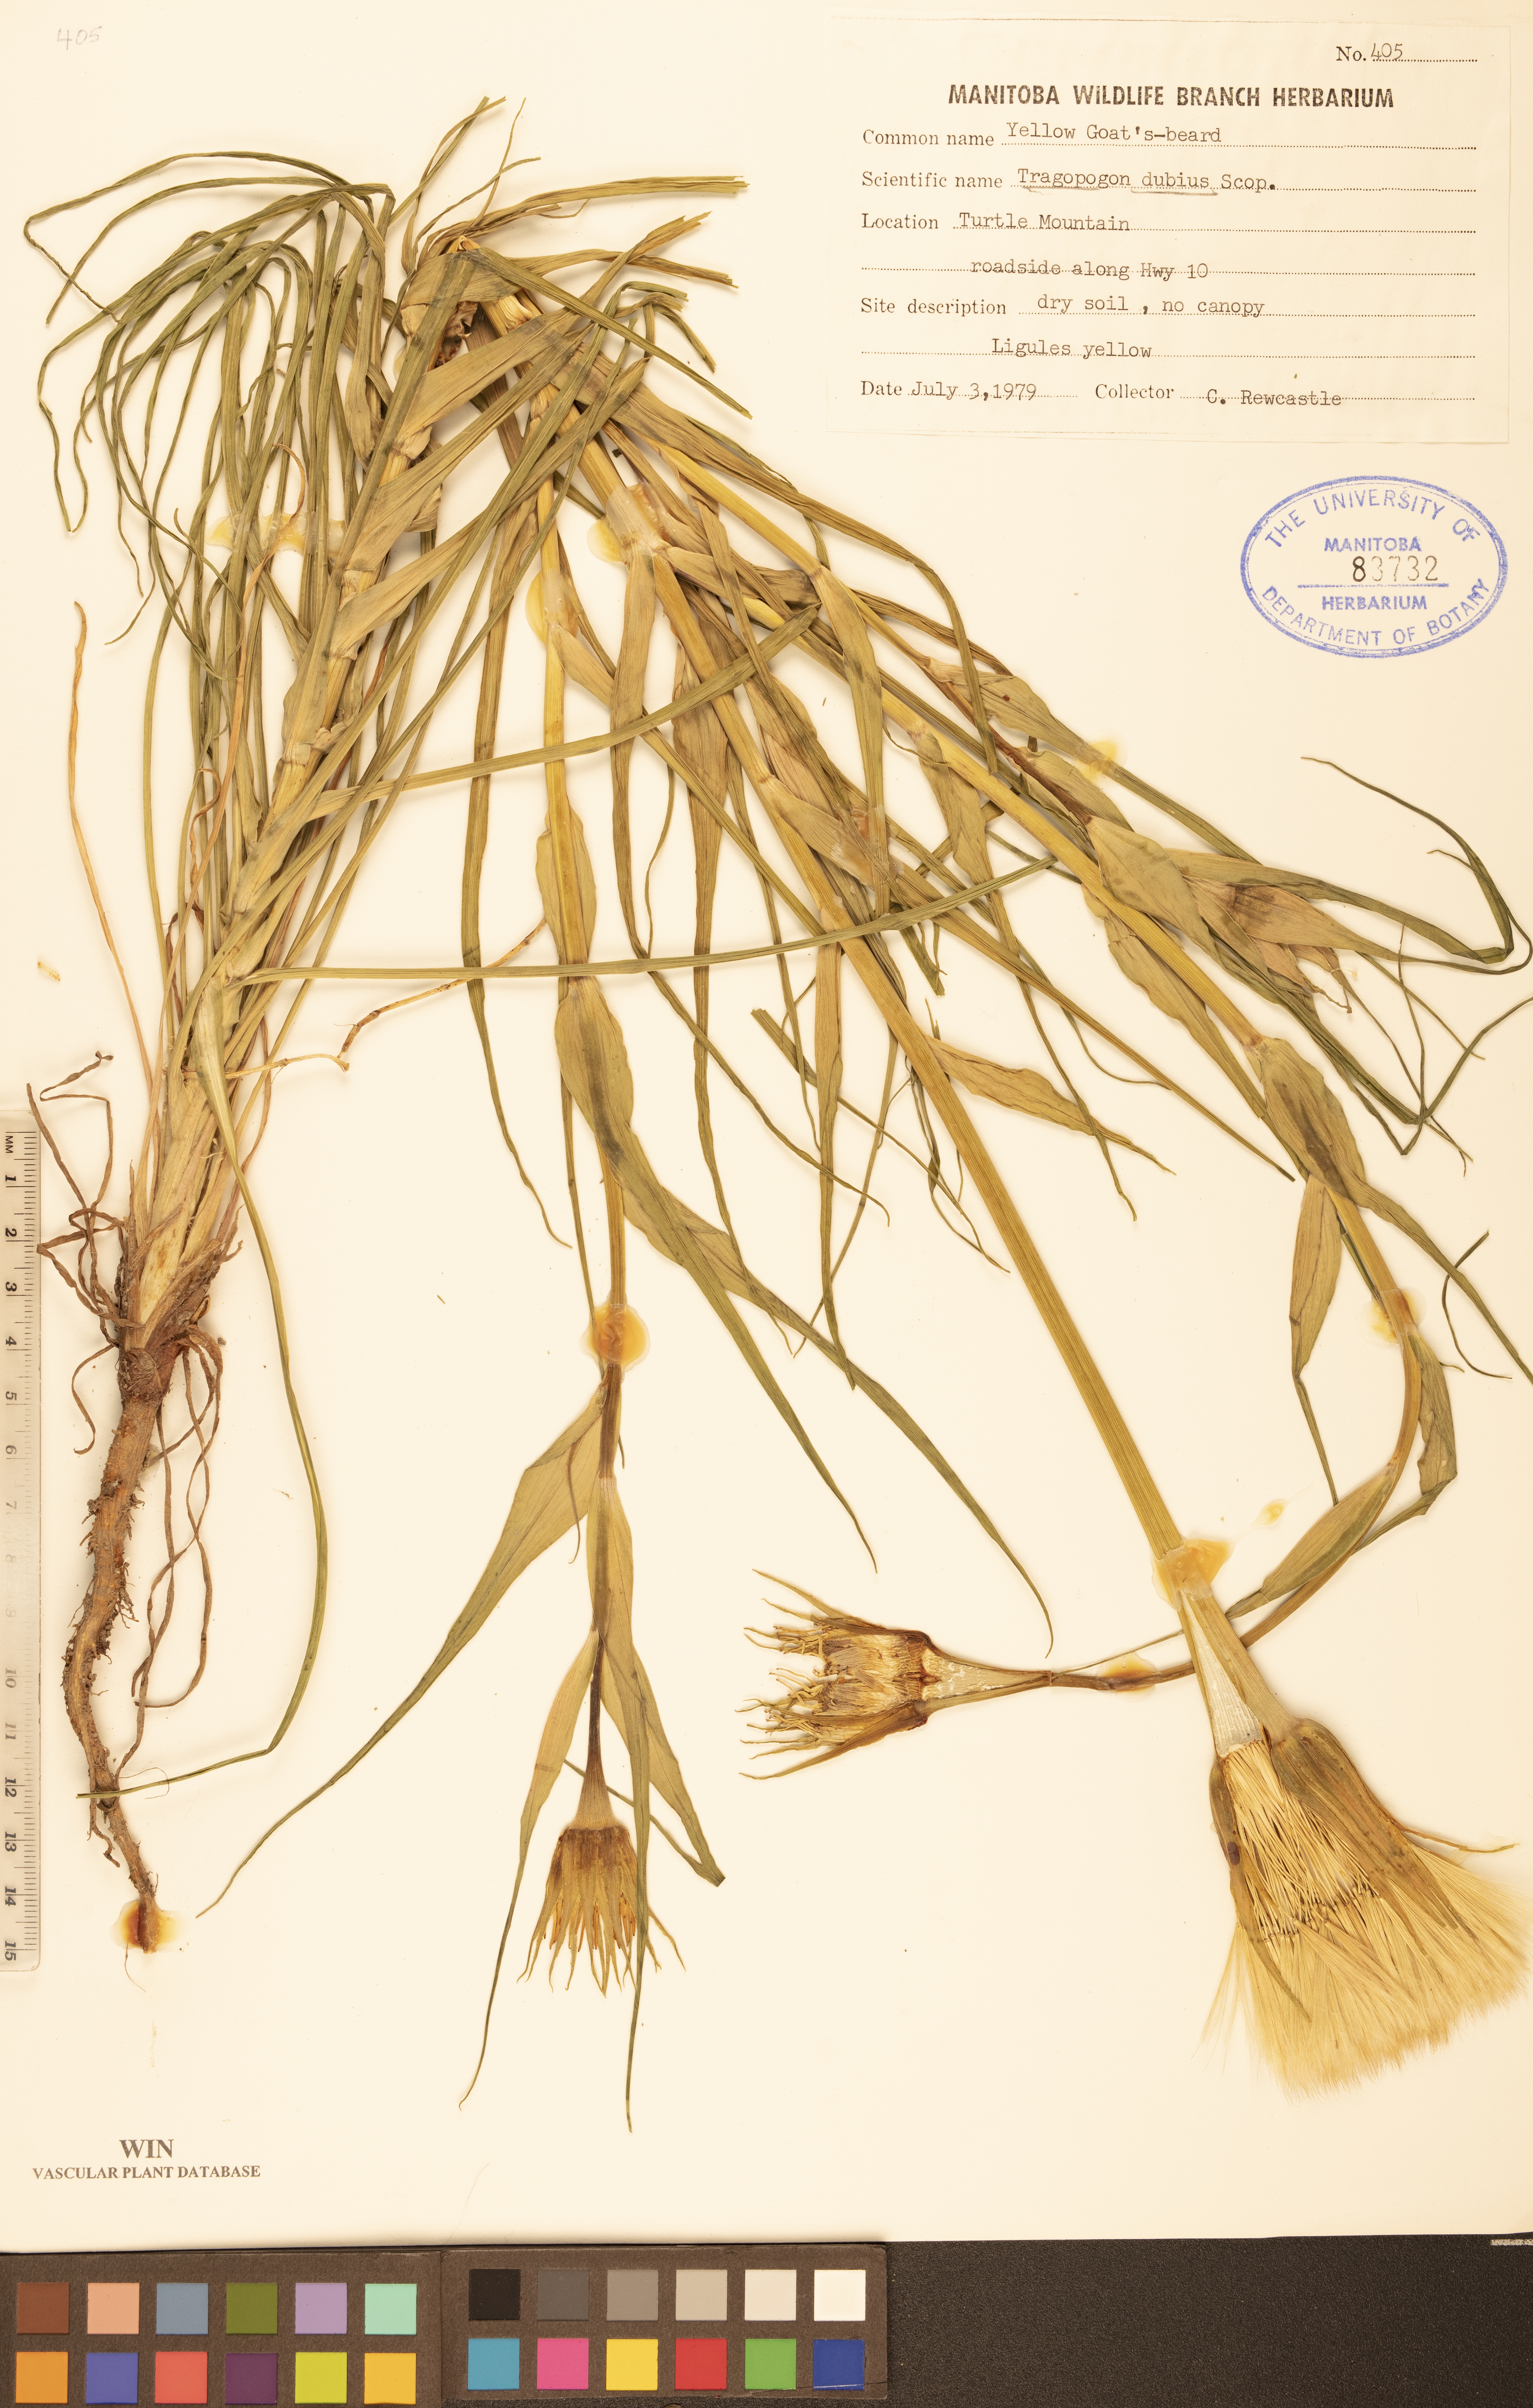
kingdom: Plantae
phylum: Tracheophyta
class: Magnoliopsida
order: Asterales
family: Asteraceae
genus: Tragopogon
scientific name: Tragopogon dubius
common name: Yellow salsify
